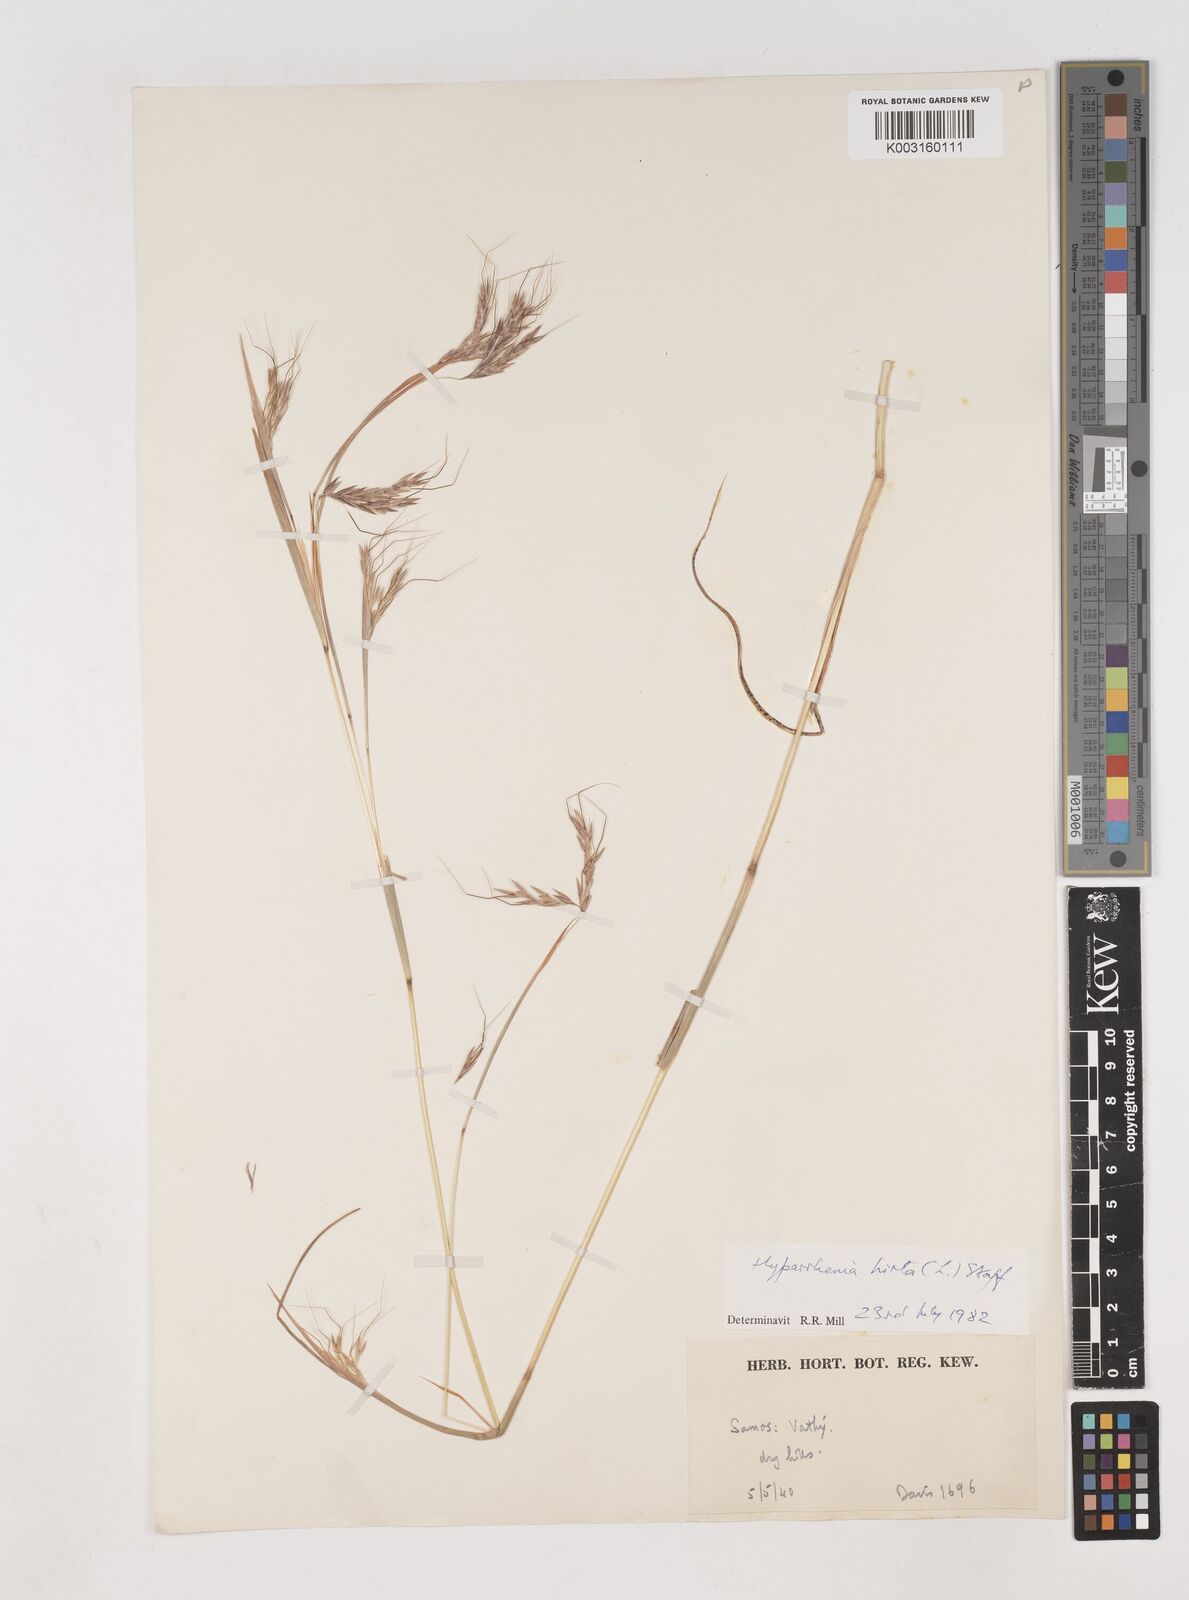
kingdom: Plantae
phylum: Tracheophyta
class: Liliopsida
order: Poales
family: Poaceae
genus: Hyparrhenia
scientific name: Hyparrhenia hirta
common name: Thatching grass
